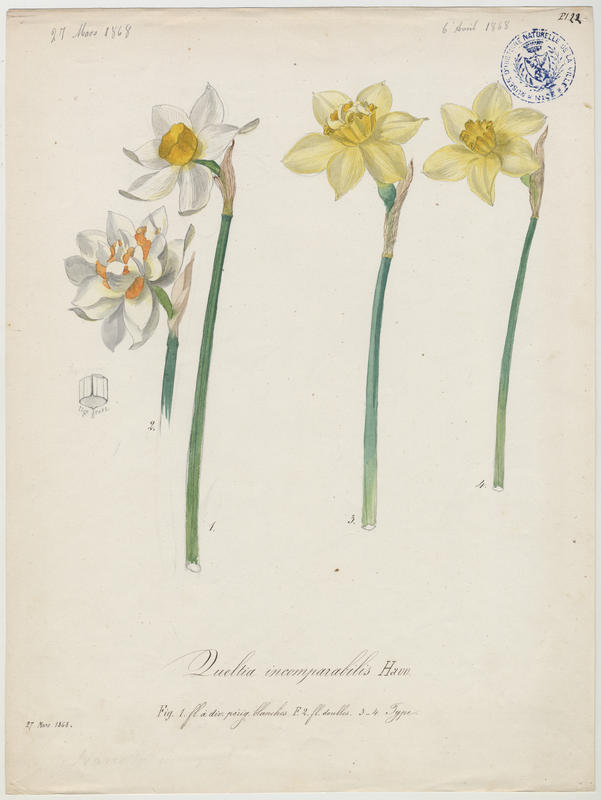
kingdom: Plantae
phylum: Tracheophyta
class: Liliopsida
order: Asparagales
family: Amaryllidaceae
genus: Narcissus
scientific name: Narcissus incomparabilis
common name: Nonesuch daffodil
